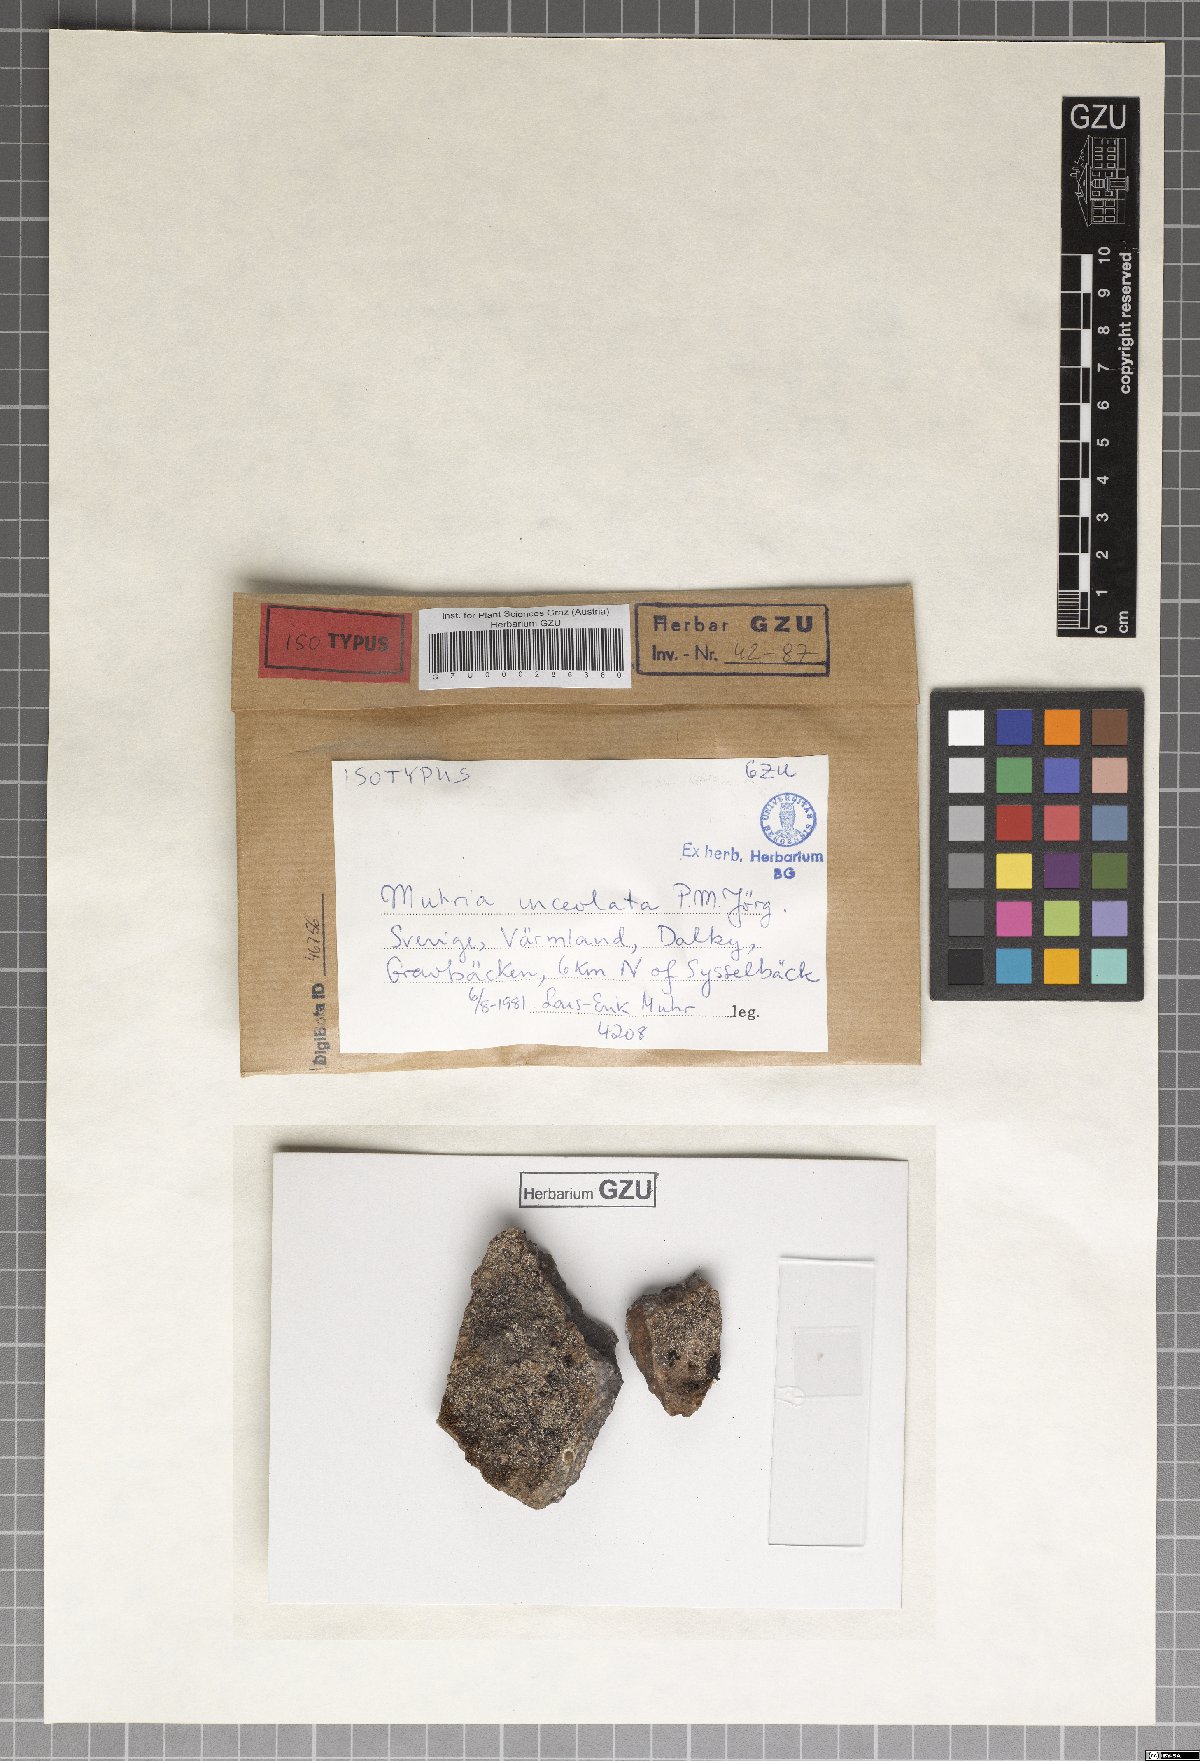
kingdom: Fungi
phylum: Ascomycota
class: Lecanoromycetes
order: Lecanorales
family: Cladoniaceae
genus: Muhria
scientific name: Muhria urceolata
